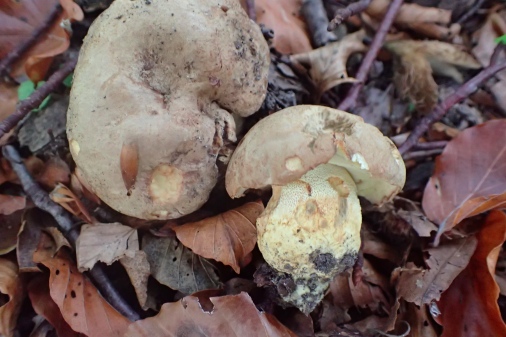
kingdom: Fungi
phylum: Basidiomycota
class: Agaricomycetes
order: Boletales
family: Boletaceae
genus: Butyriboletus
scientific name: Butyriboletus appendiculatus
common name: tenstokket rørhat
